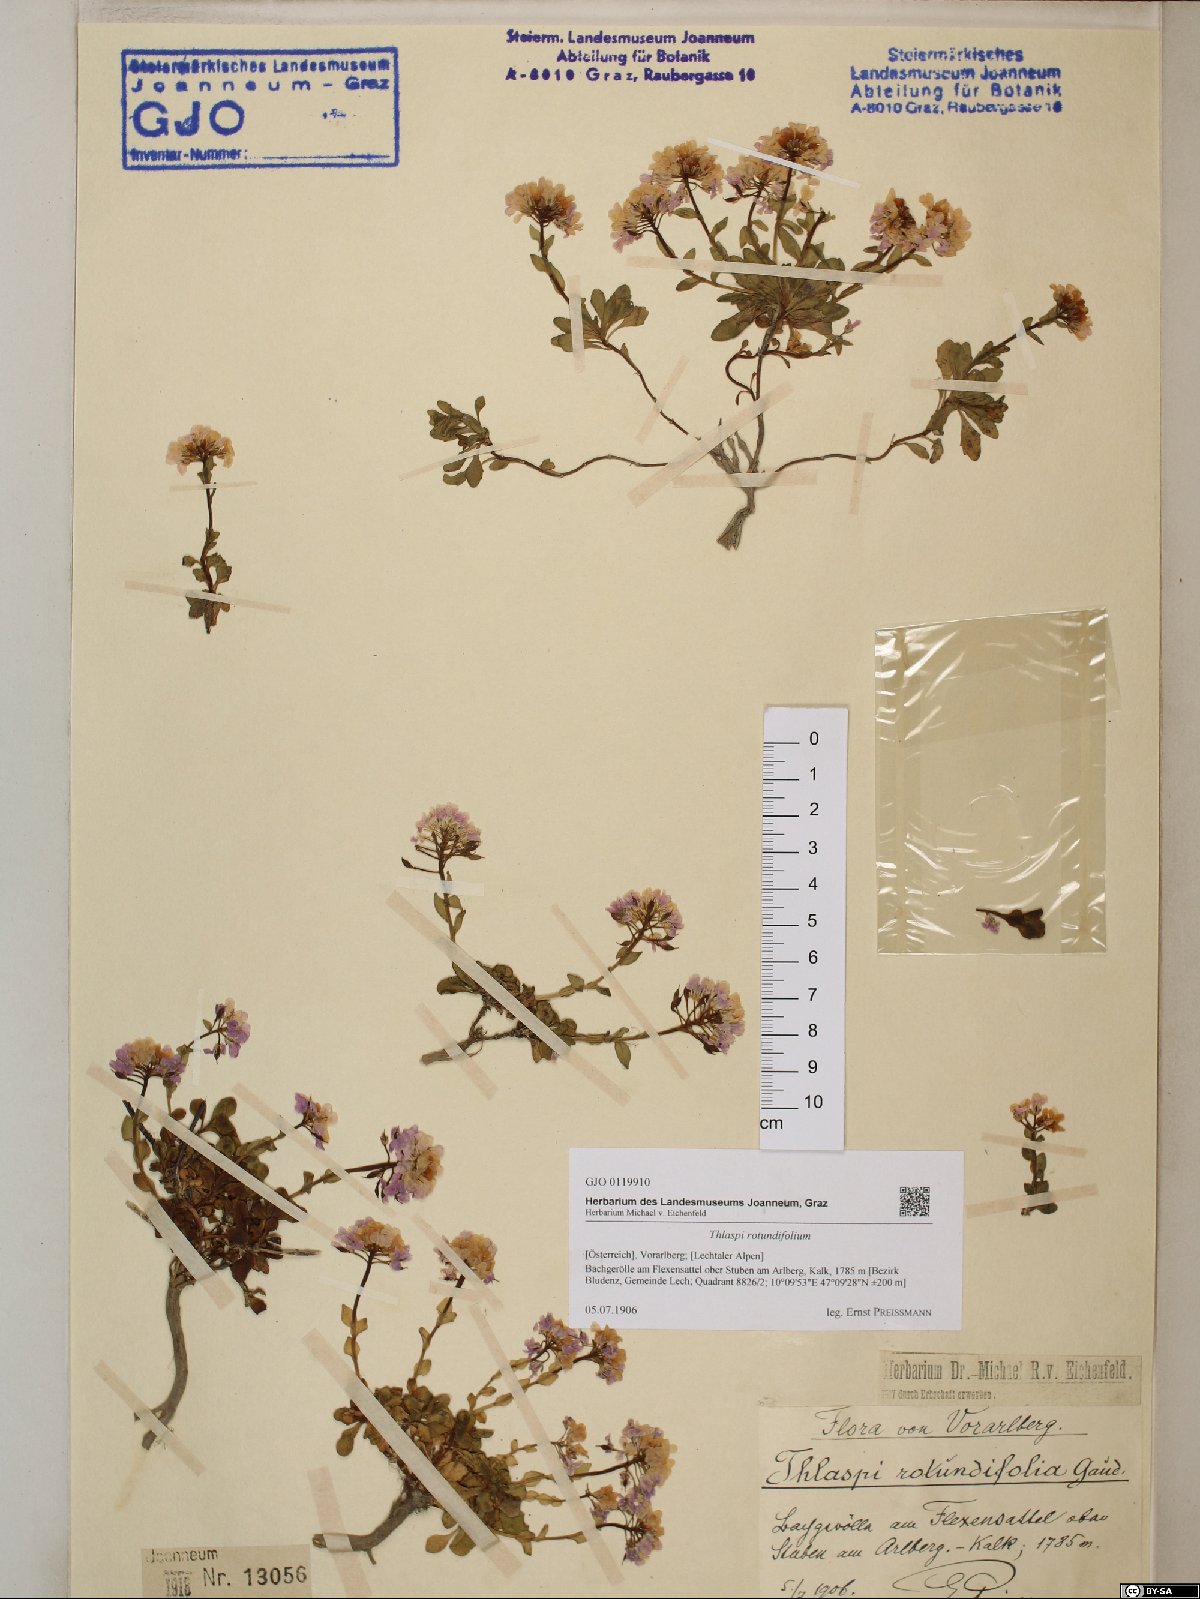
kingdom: Plantae
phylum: Tracheophyta
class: Magnoliopsida
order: Brassicales
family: Brassicaceae
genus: Noccaea
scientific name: Noccaea rotundifolia
